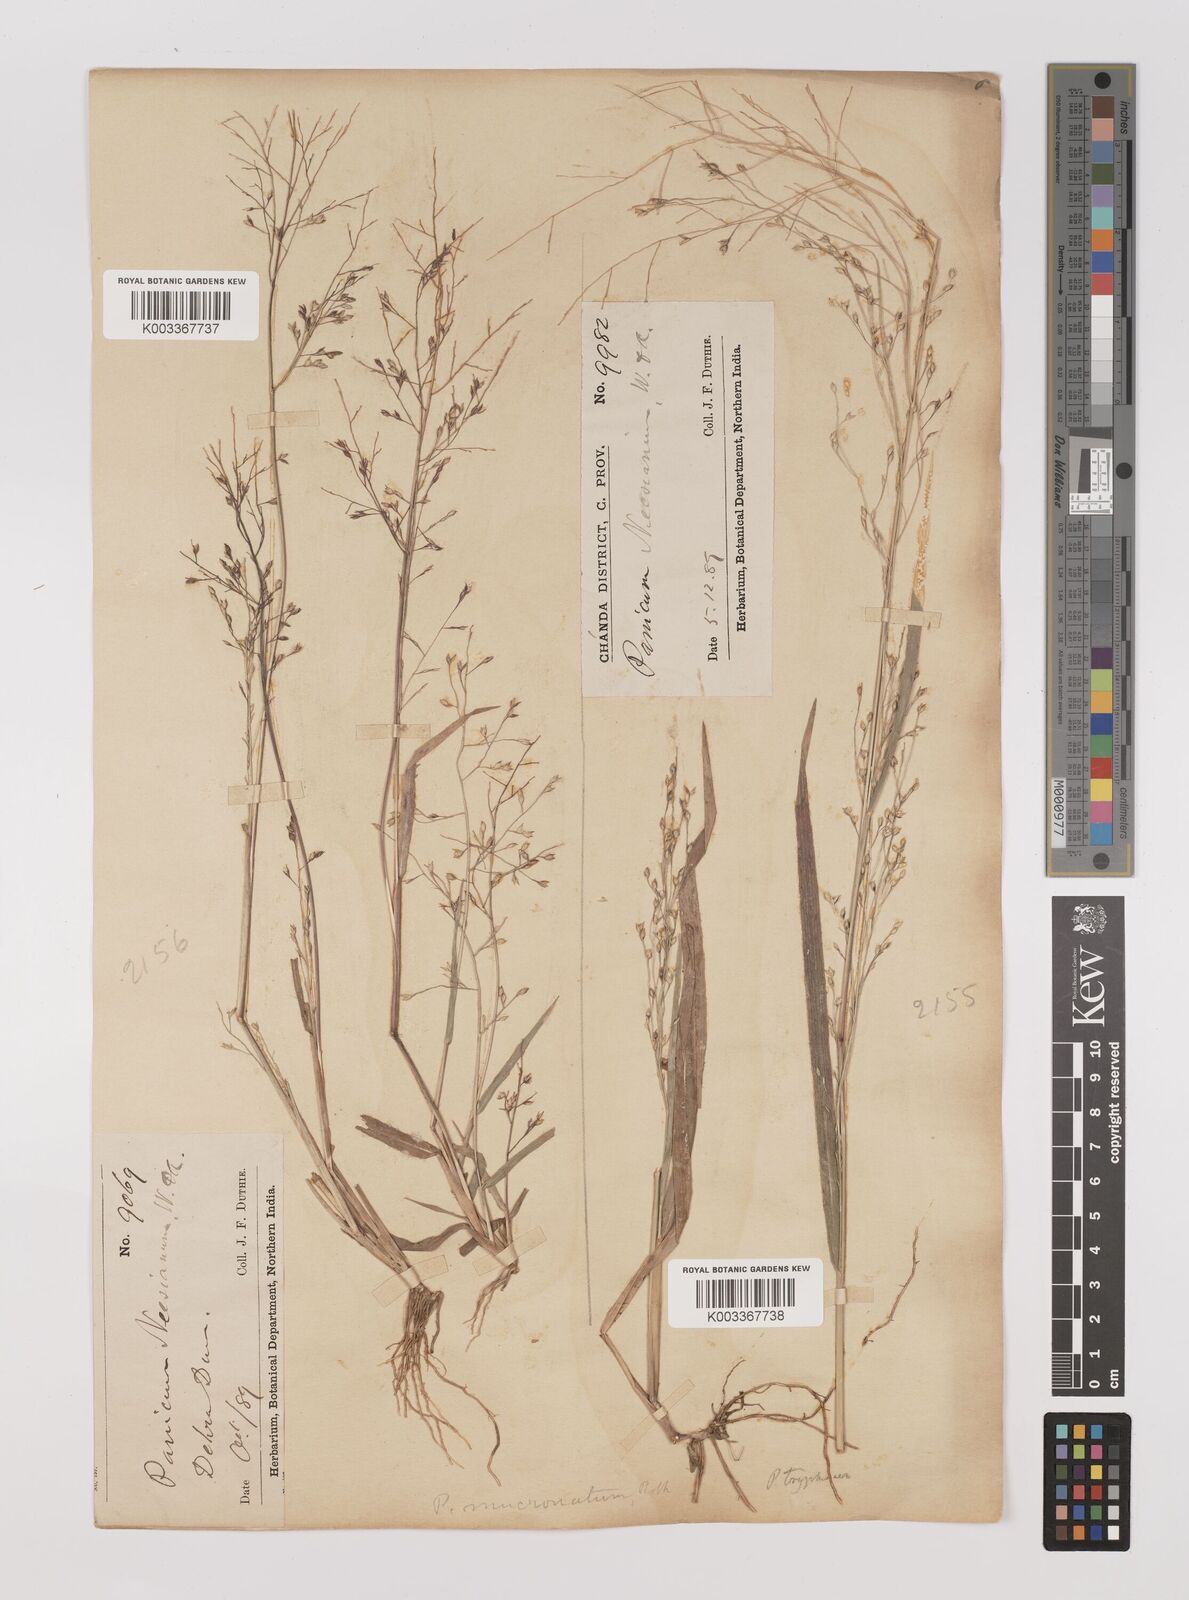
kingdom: Plantae
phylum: Tracheophyta
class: Liliopsida
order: Poales
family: Poaceae
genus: Panicum
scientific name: Panicum curviflorum
